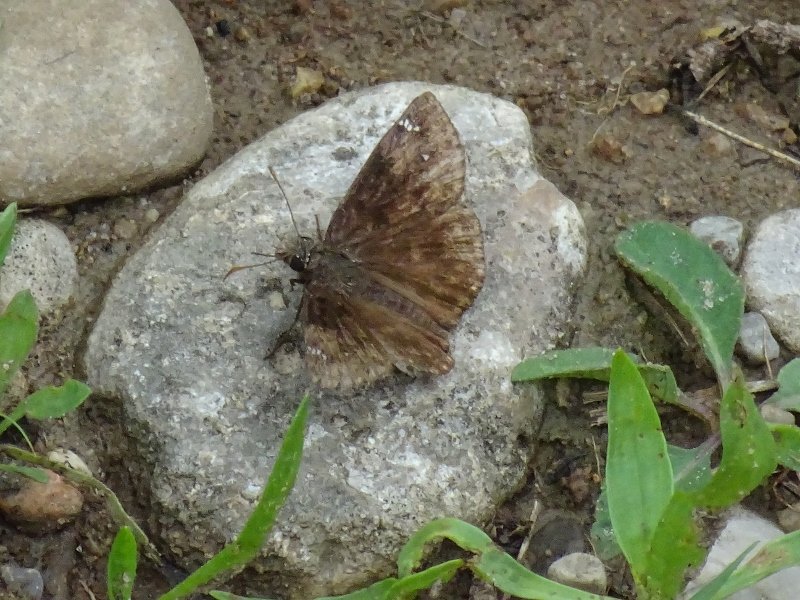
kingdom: Animalia
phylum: Arthropoda
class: Insecta
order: Lepidoptera
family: Hesperiidae
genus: Gesta
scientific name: Gesta
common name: Wild Indigo Duskywing
